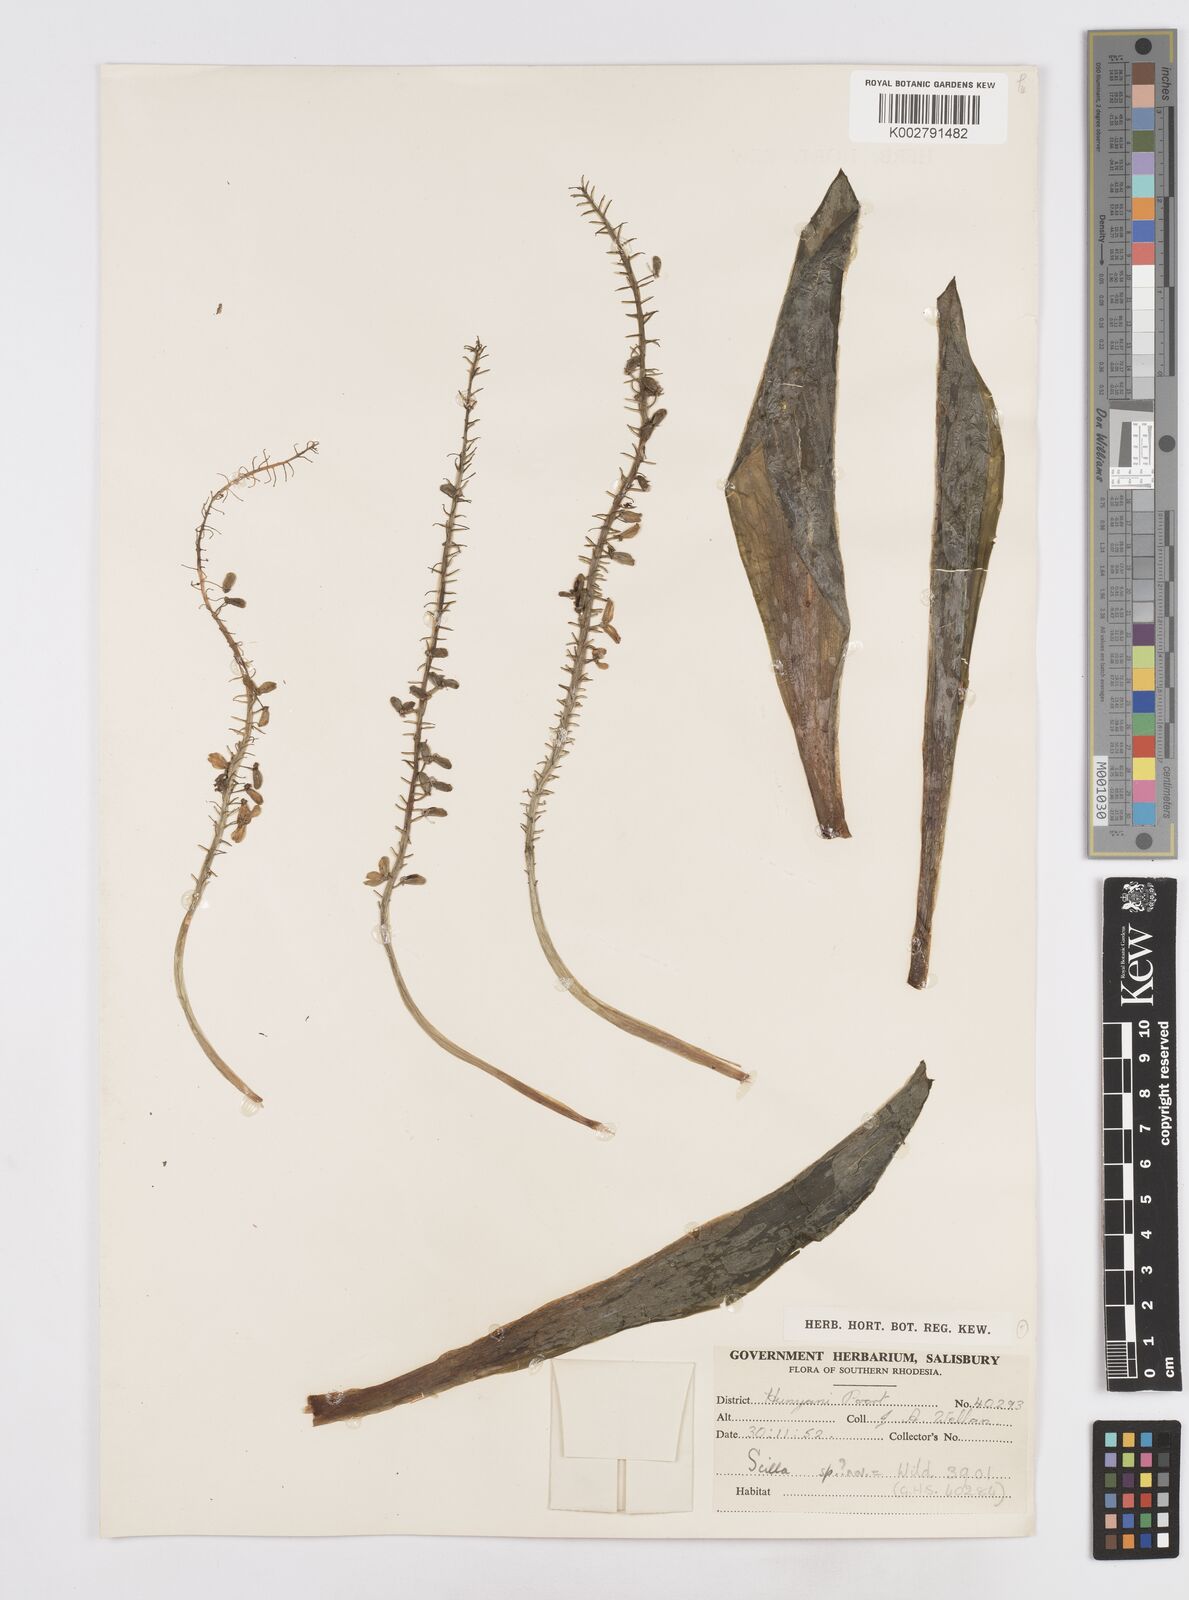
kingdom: Plantae
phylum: Tracheophyta
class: Liliopsida
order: Asparagales
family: Asparagaceae
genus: Scilla
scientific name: Scilla
